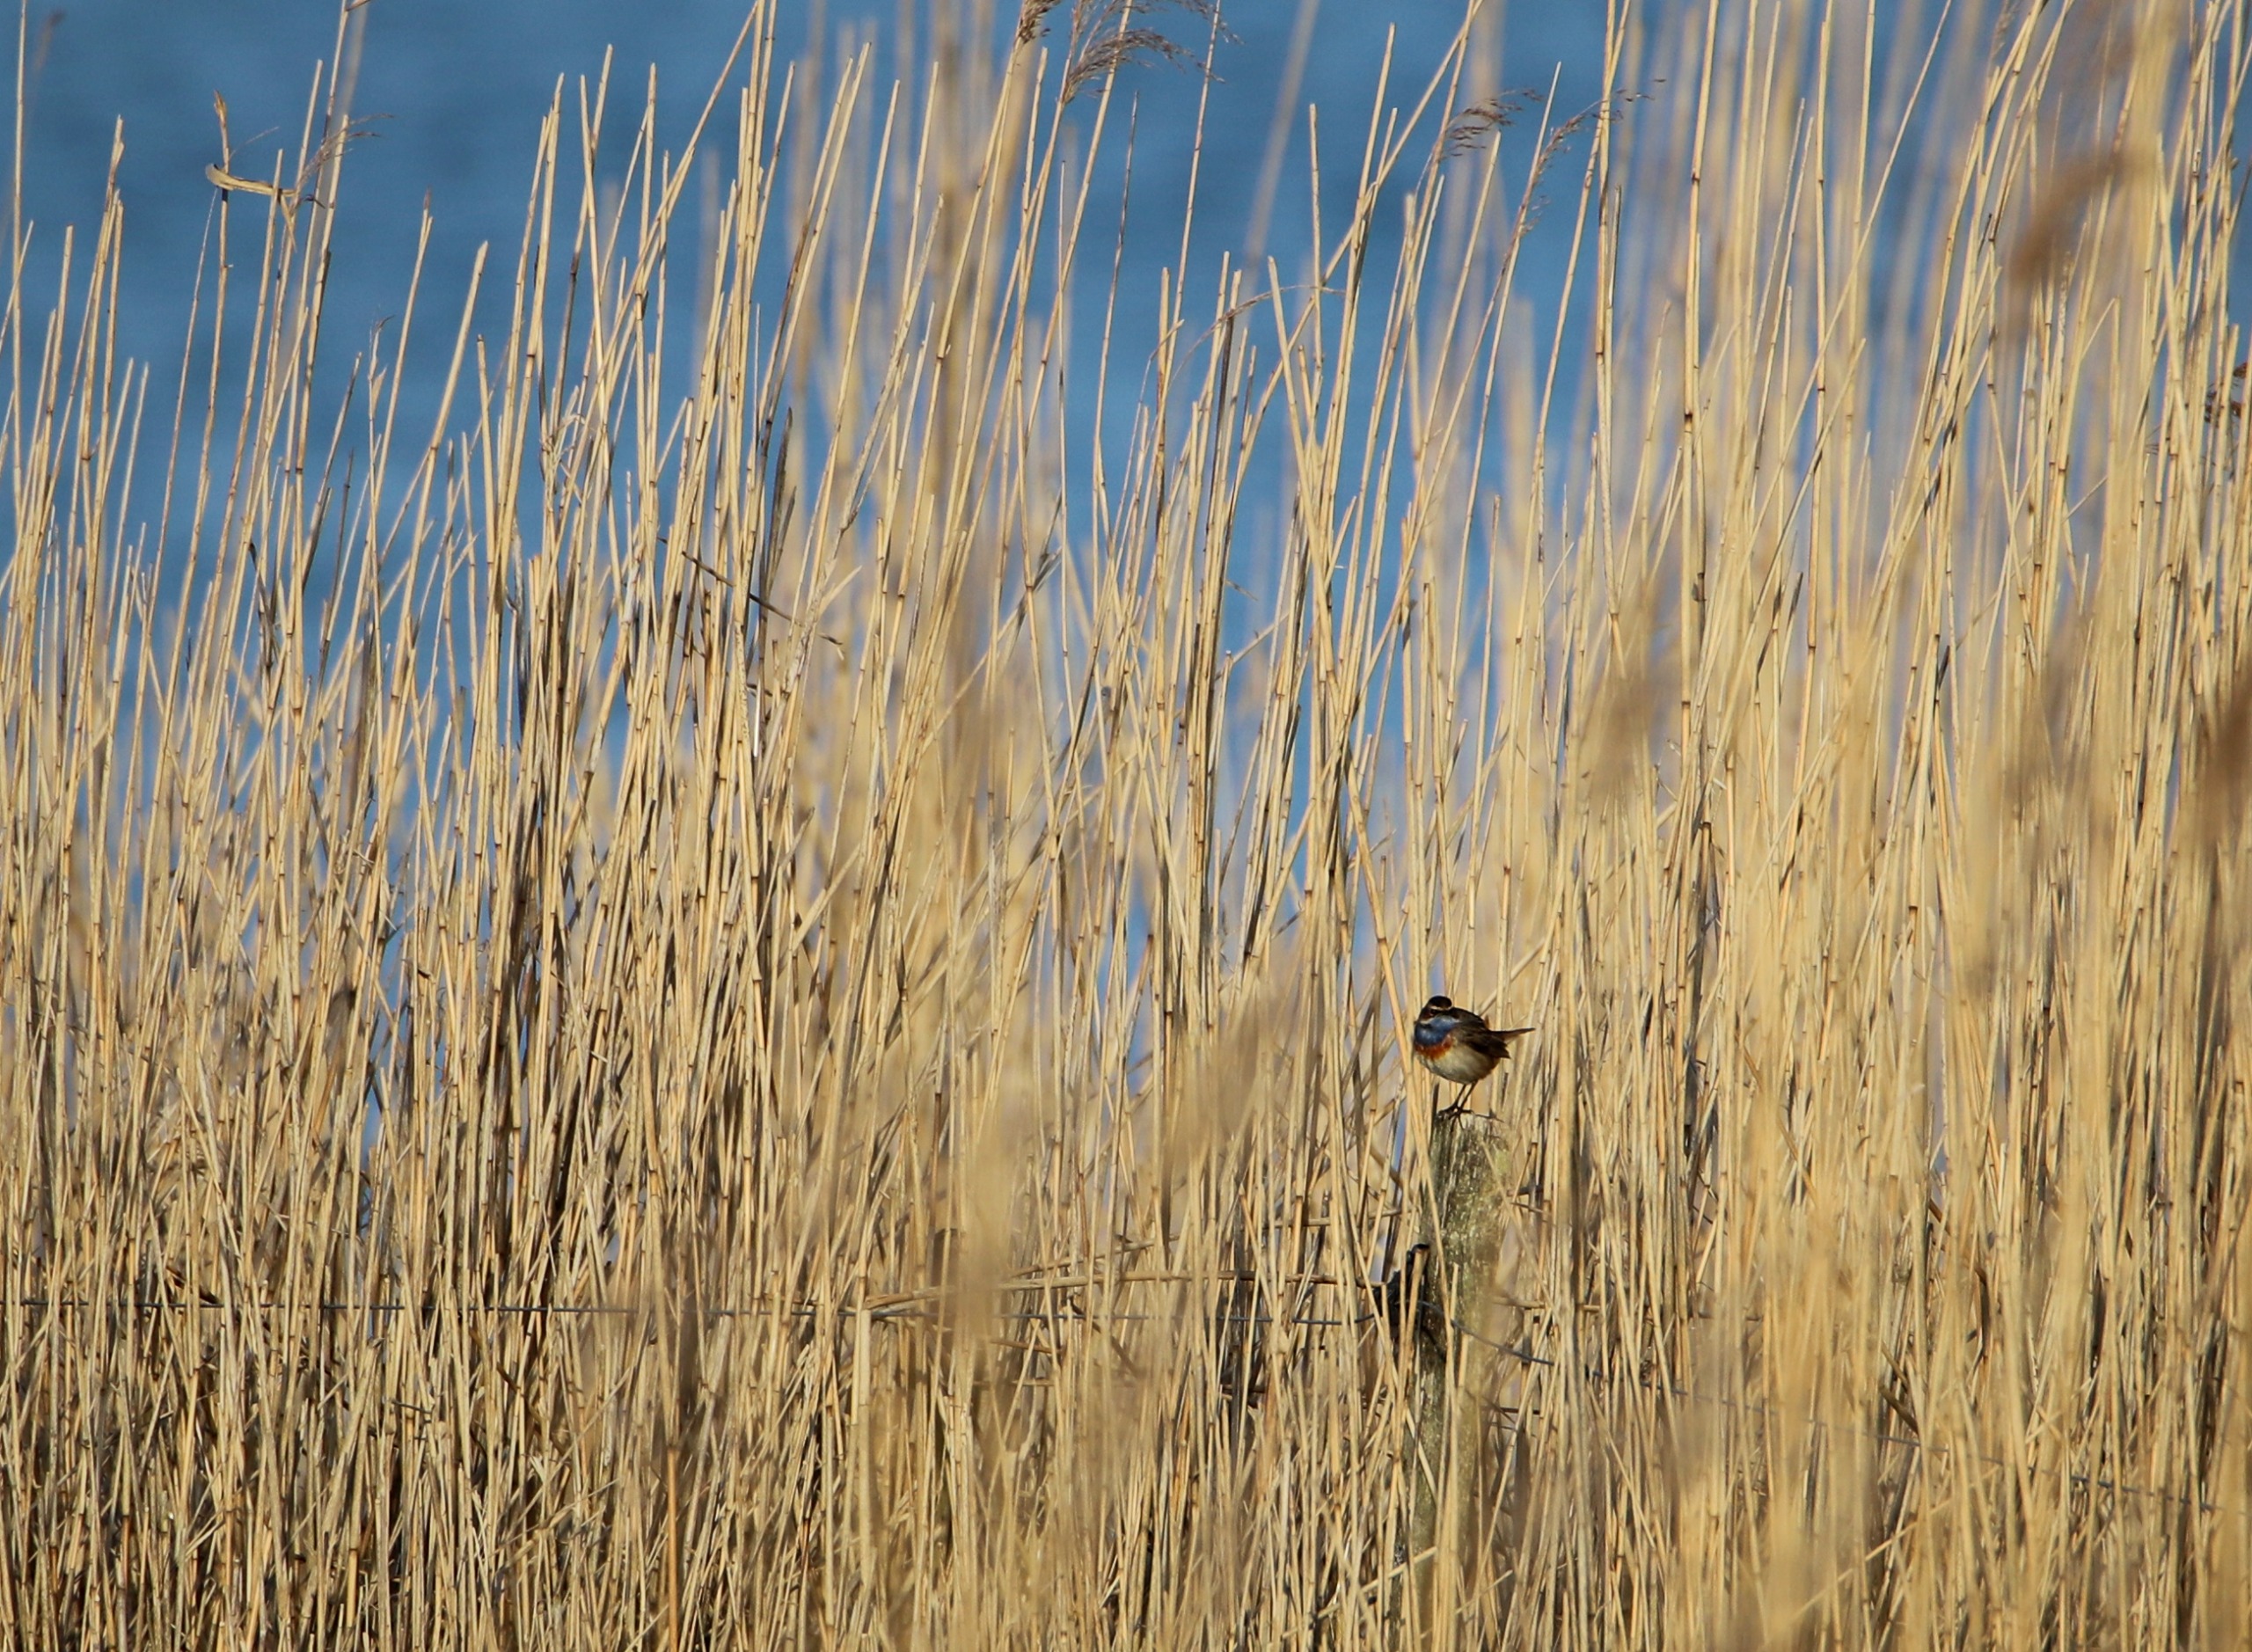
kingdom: Animalia
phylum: Chordata
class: Aves
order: Passeriformes
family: Muscicapidae
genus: Luscinia
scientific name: Luscinia svecica
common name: Blåhals
